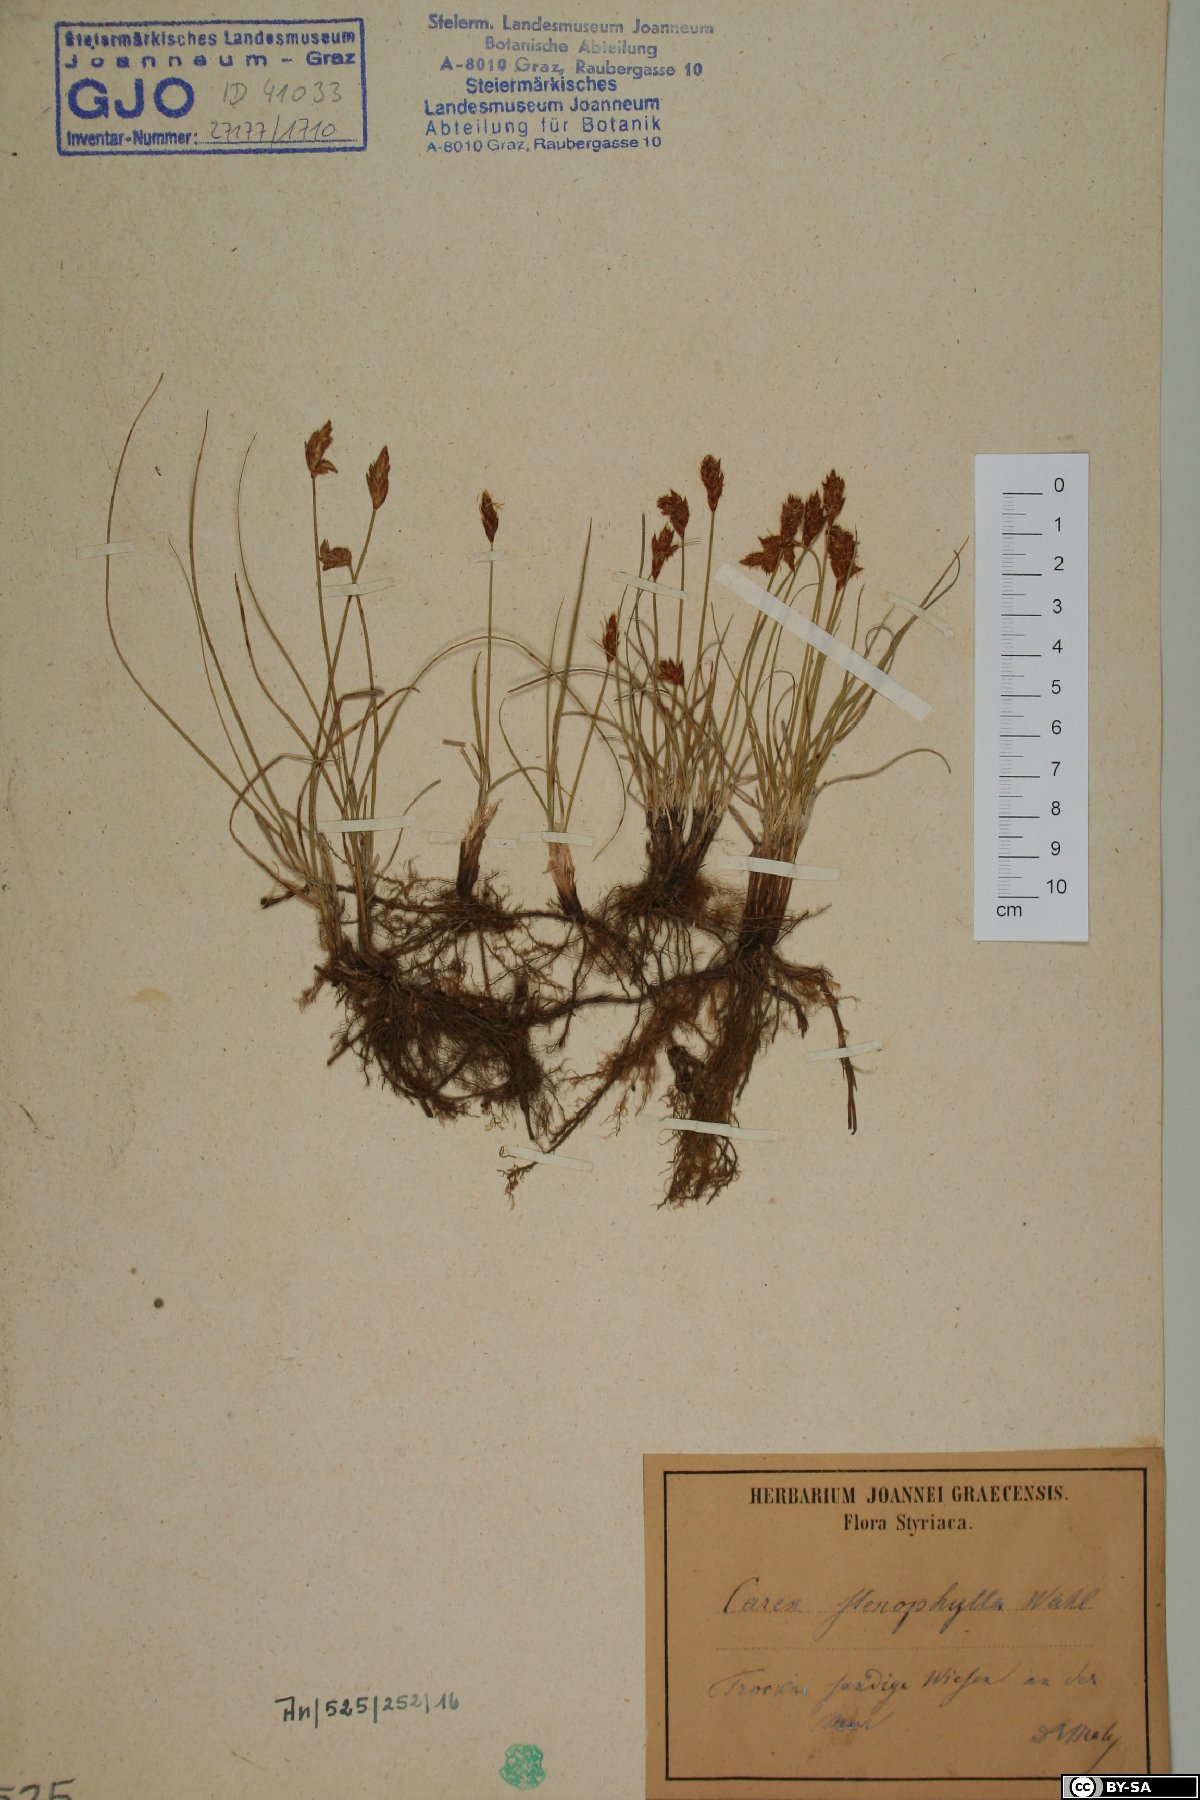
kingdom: Plantae
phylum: Tracheophyta
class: Liliopsida
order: Poales
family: Cyperaceae
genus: Carex
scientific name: Carex stenophylla
